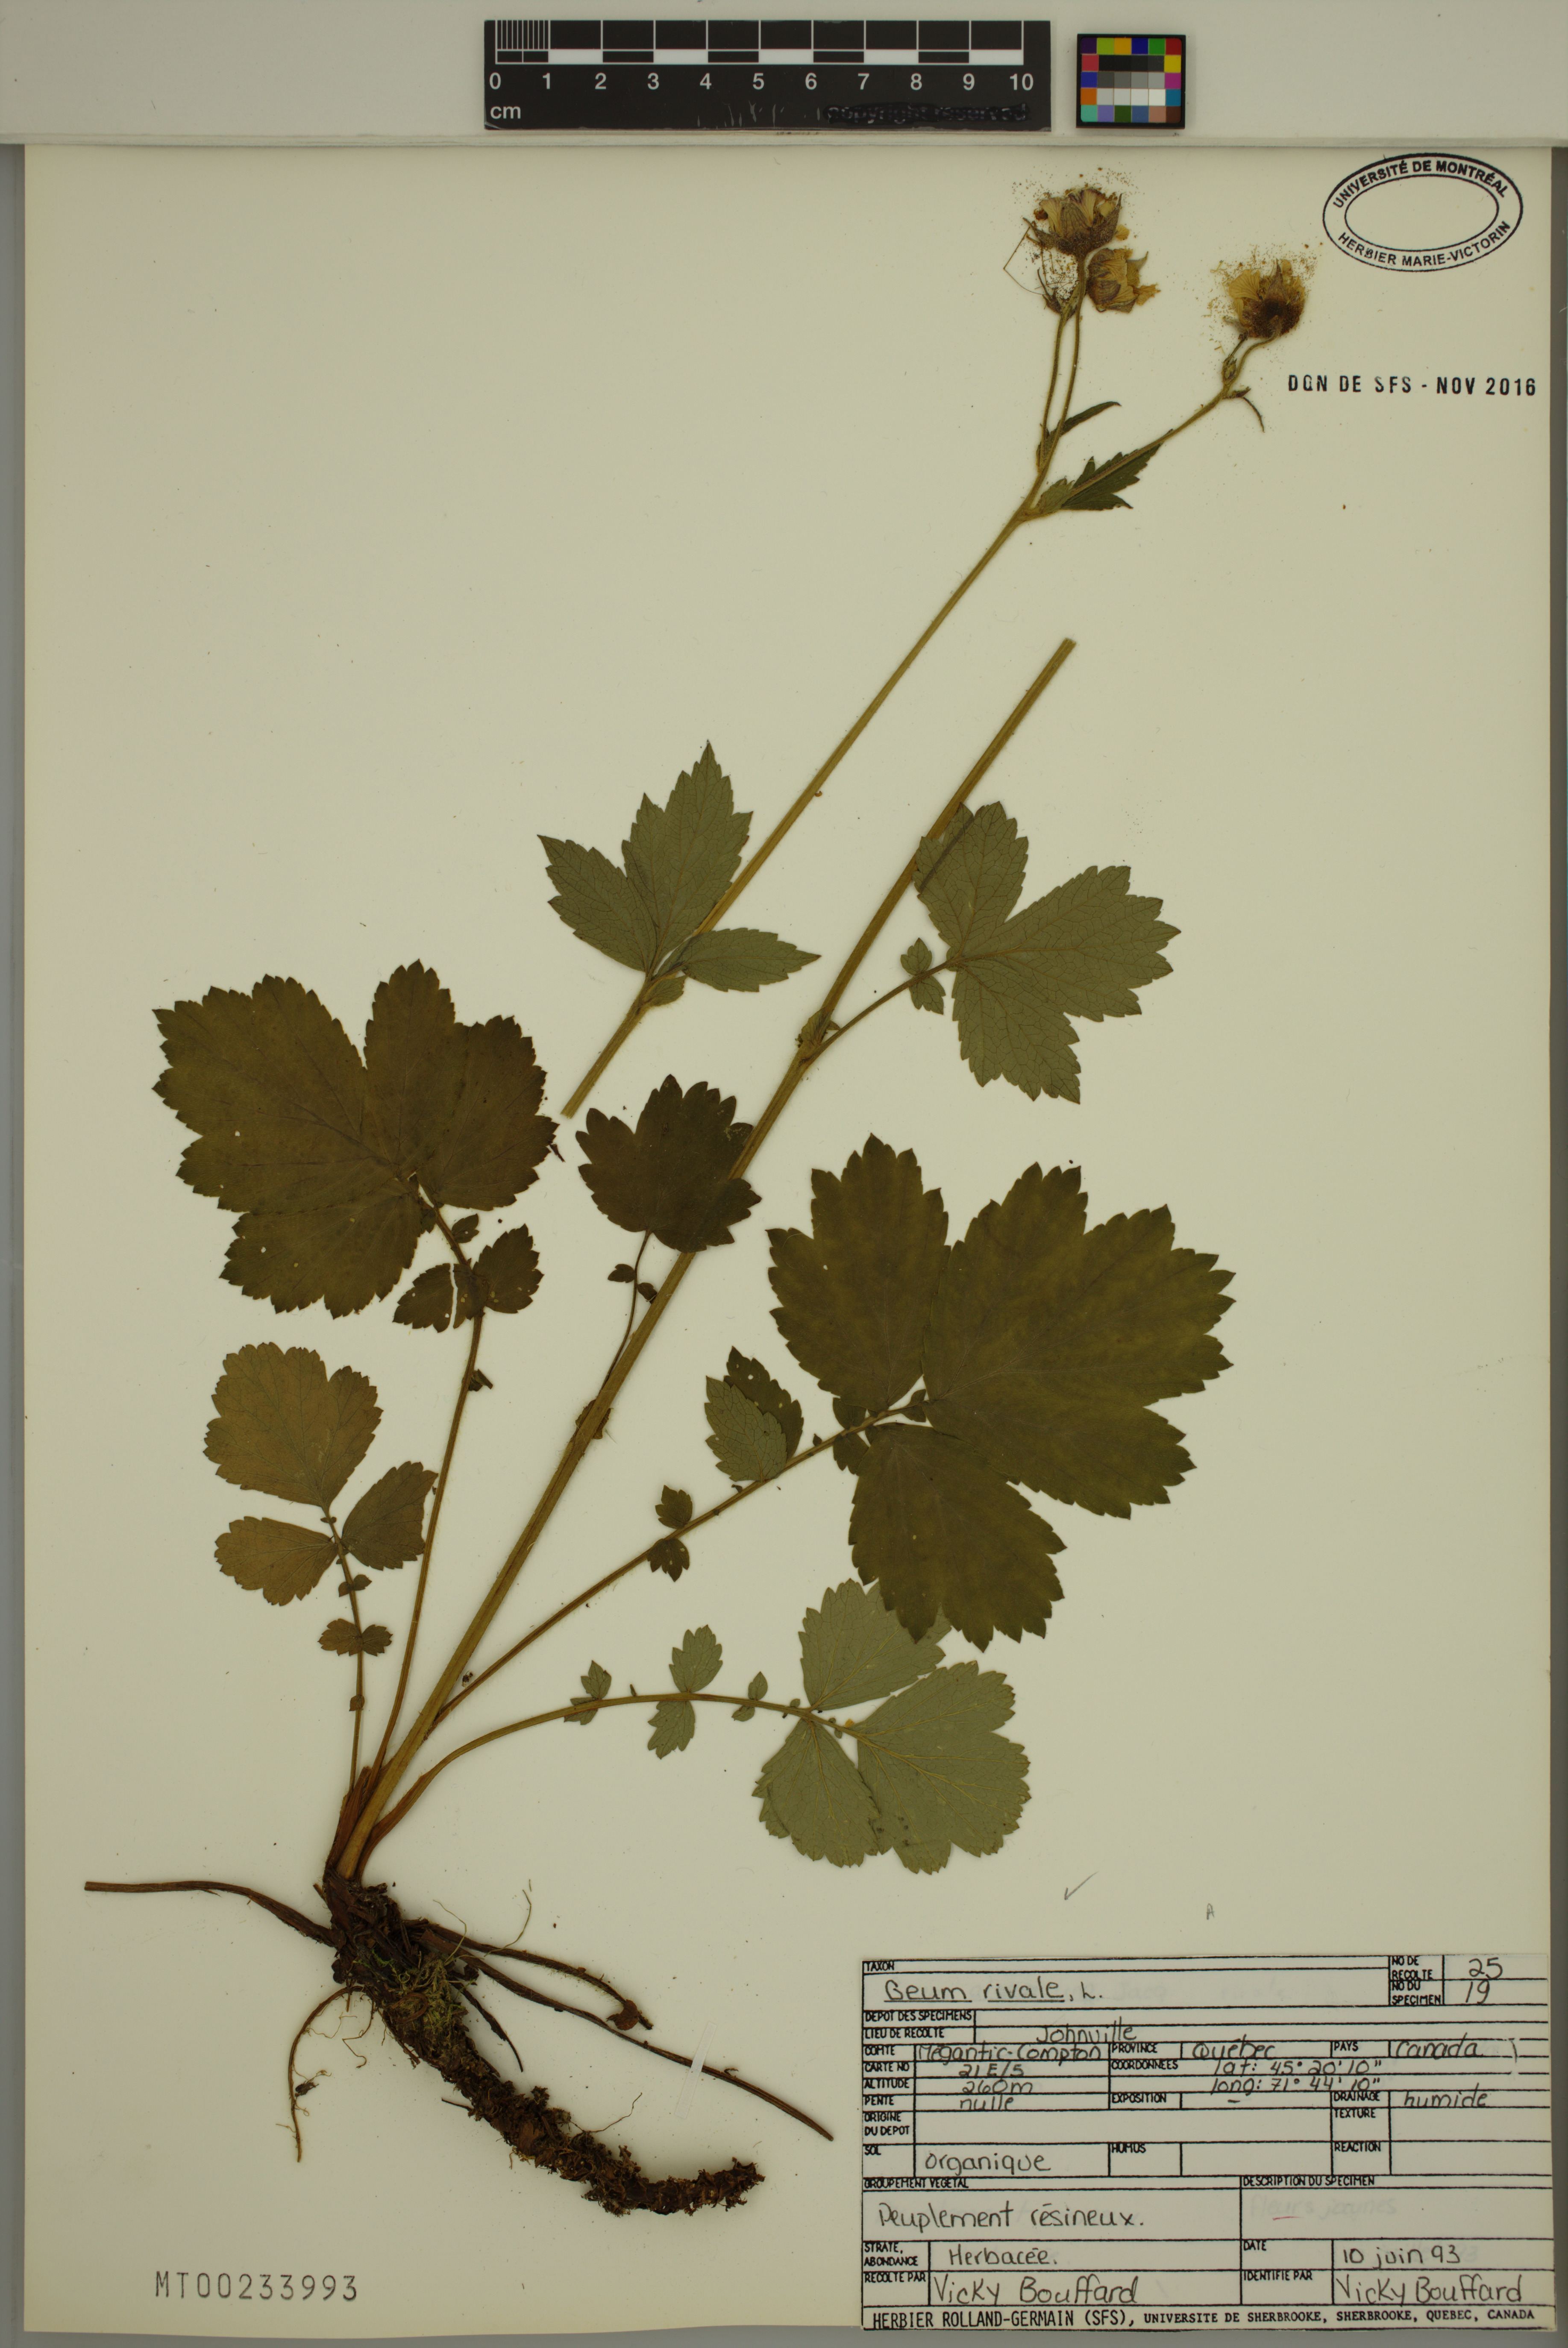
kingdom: Plantae
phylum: Tracheophyta
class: Magnoliopsida
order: Rosales
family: Rosaceae
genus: Geum
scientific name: Geum rivale
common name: Water avens
